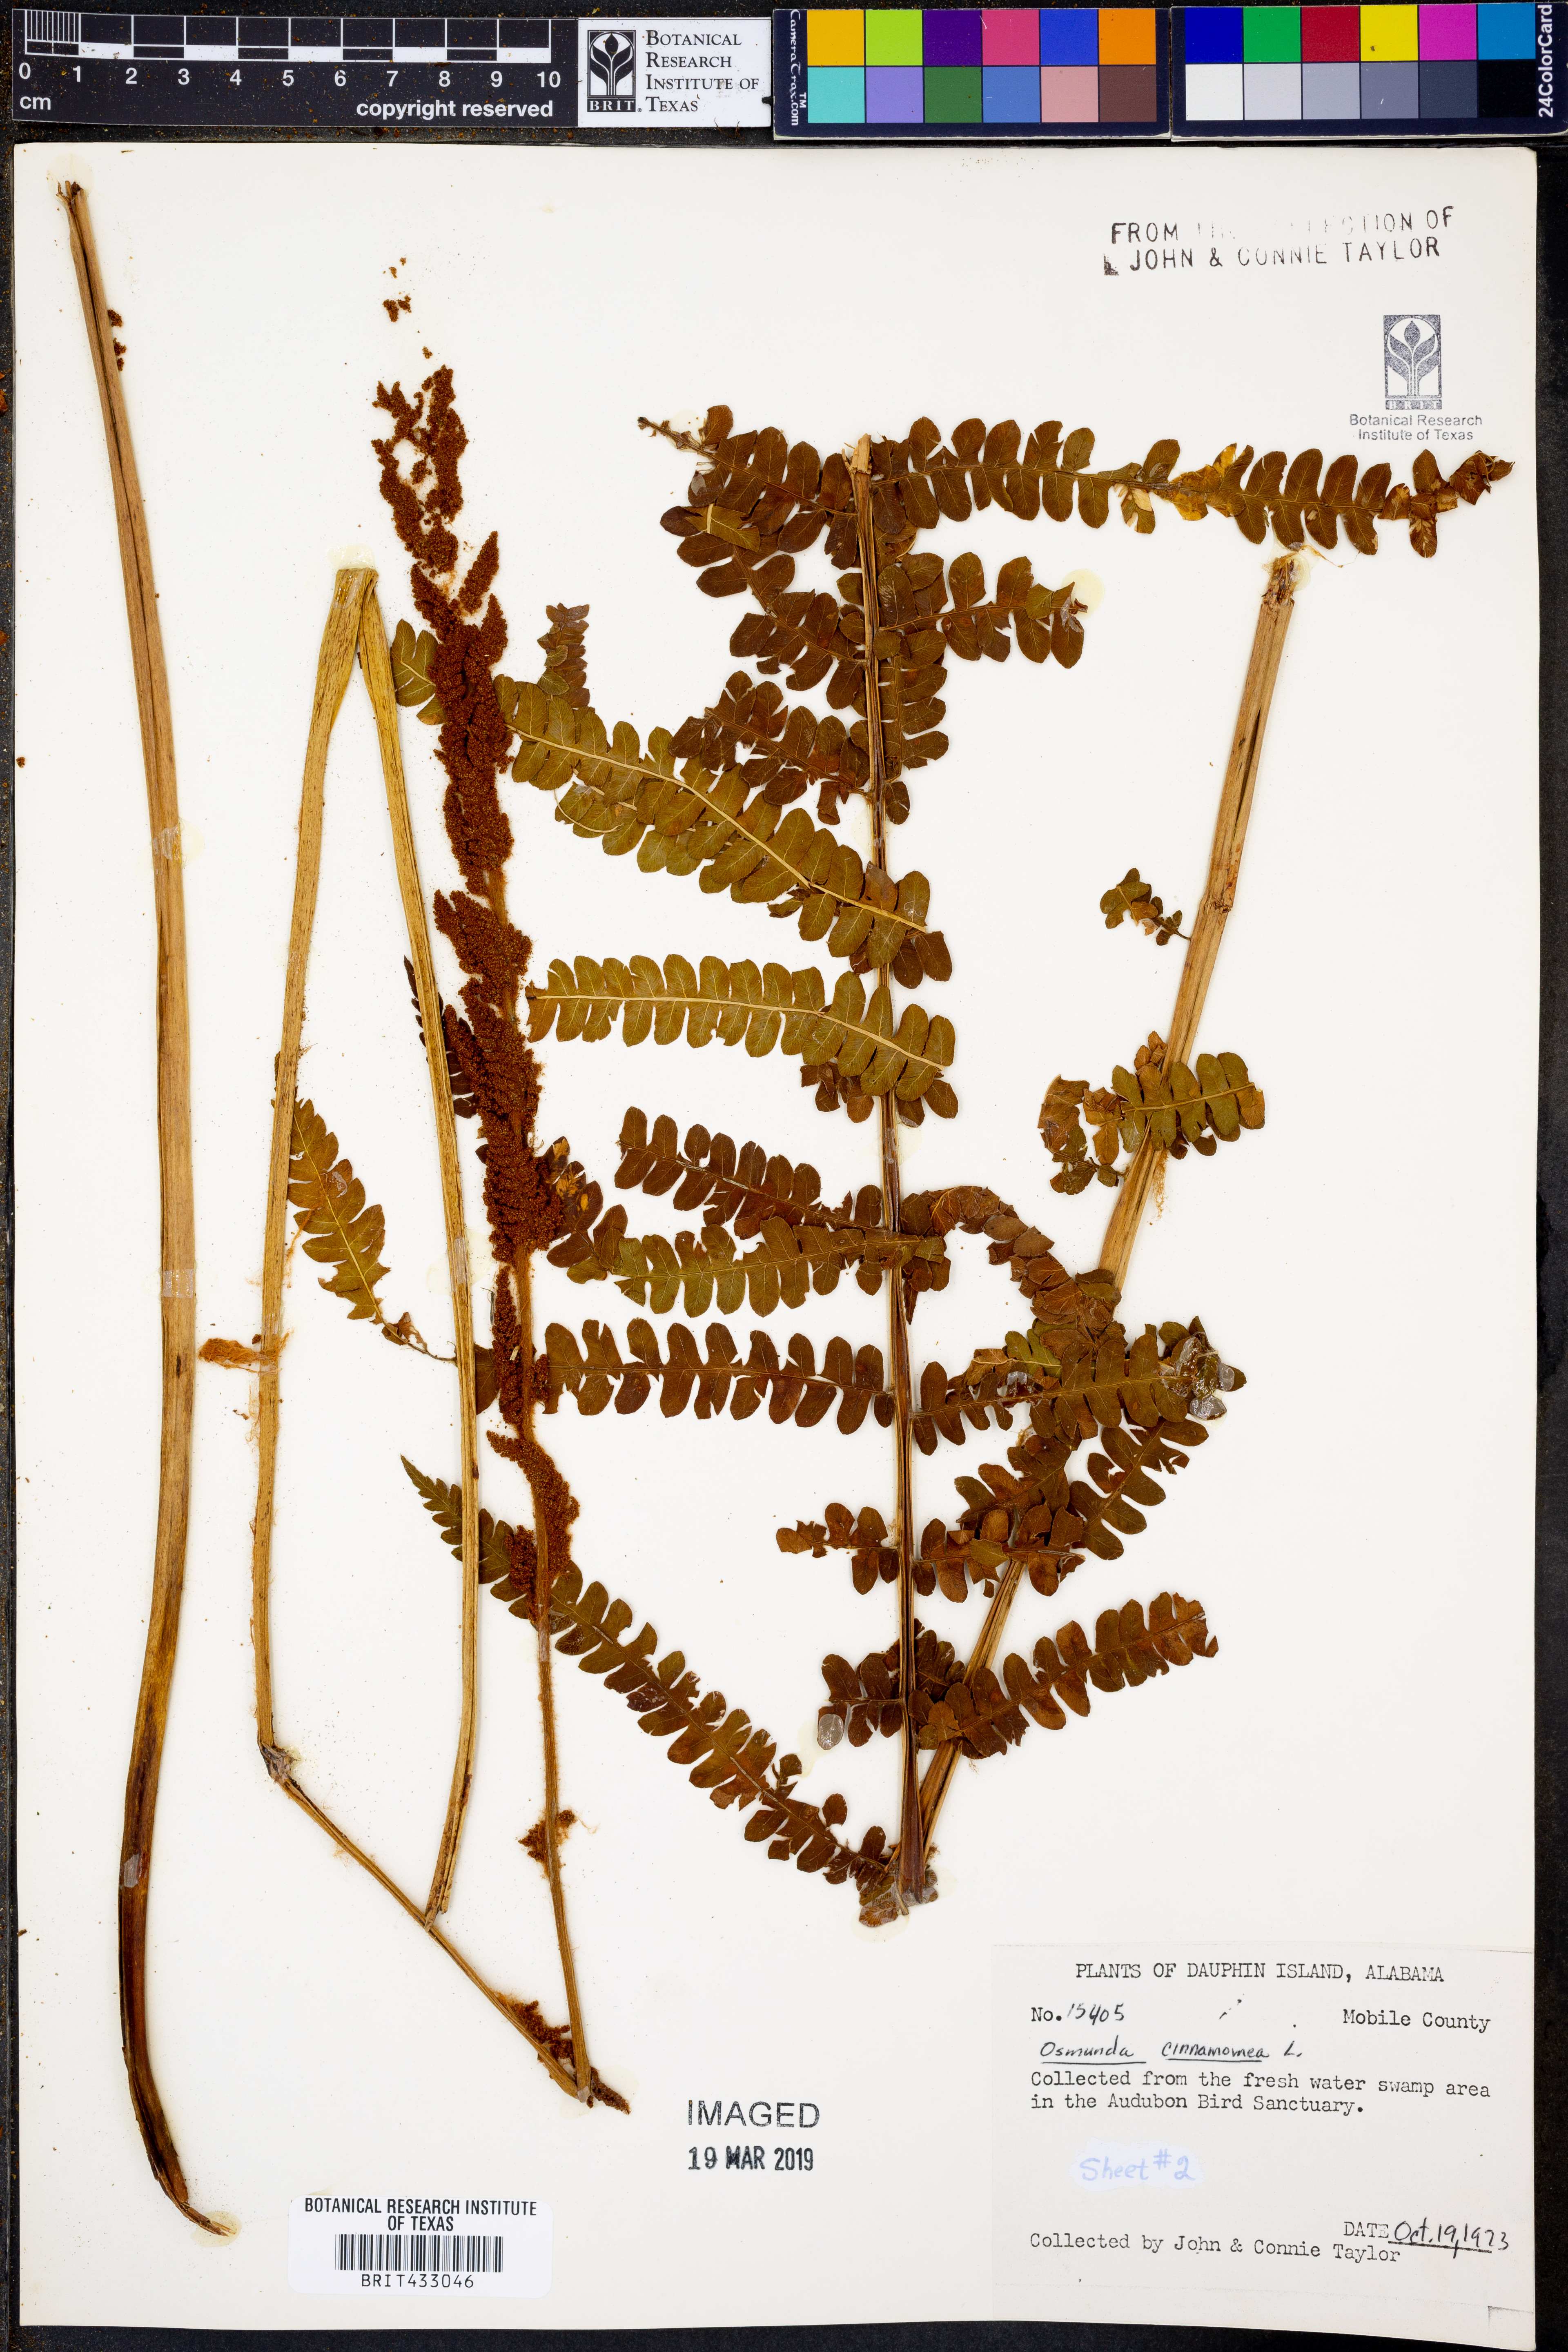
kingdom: Plantae
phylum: Tracheophyta
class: Polypodiopsida
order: Osmundales
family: Osmundaceae
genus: Osmundastrum
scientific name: Osmundastrum cinnamomeum
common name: Cinnamon fern
